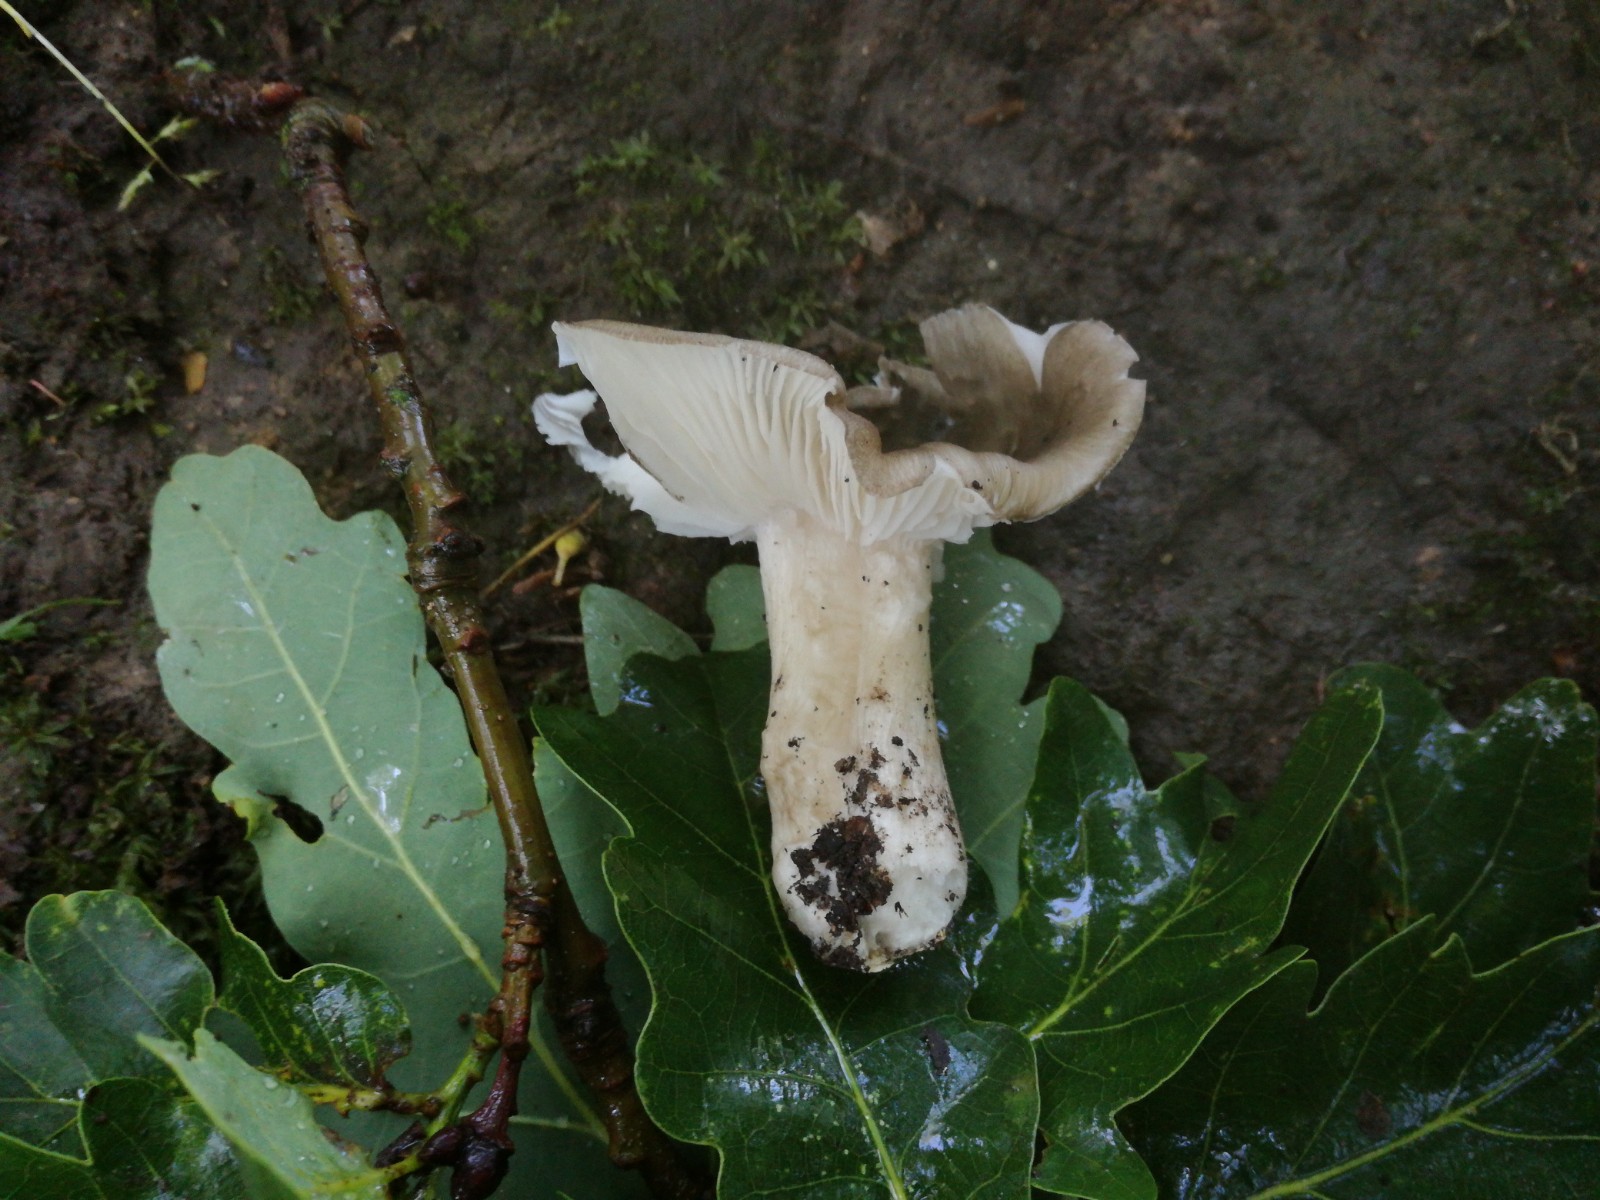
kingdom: Fungi
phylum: Basidiomycota
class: Agaricomycetes
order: Agaricales
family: Tricholomataceae
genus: Megacollybia
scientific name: Megacollybia platyphylla
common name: bredbladet væbnerhat
